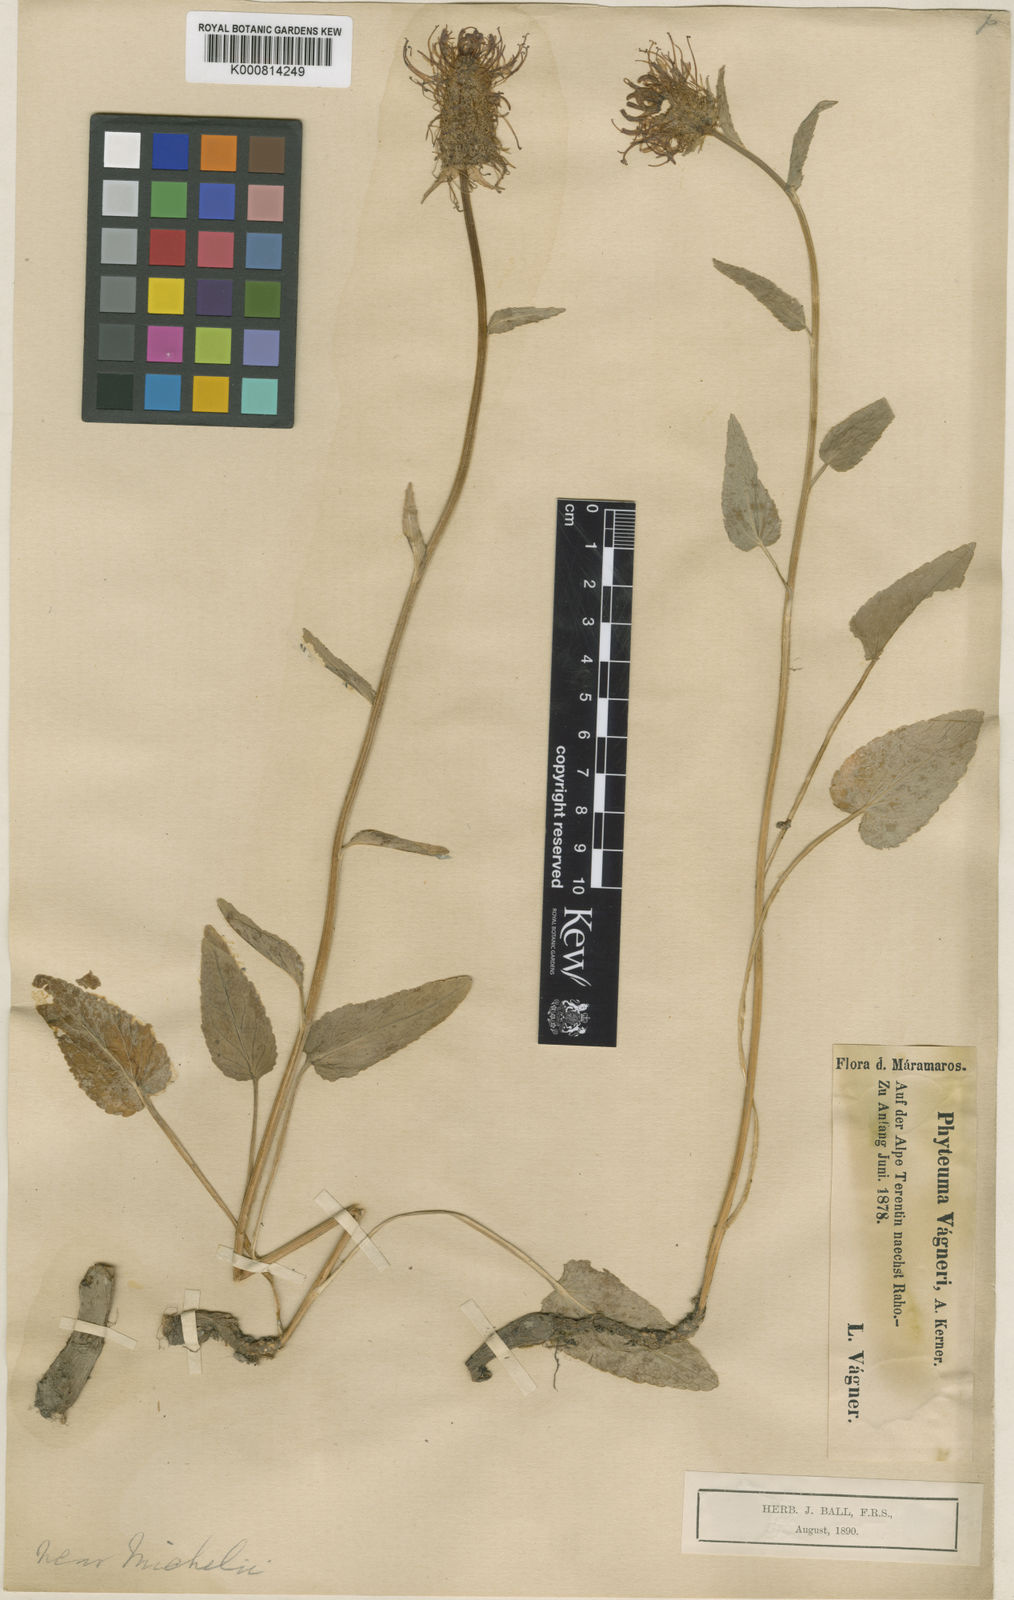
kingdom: Plantae
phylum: Tracheophyta
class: Magnoliopsida
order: Asterales
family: Campanulaceae
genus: Phyteuma
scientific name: Phyteuma vagneri
